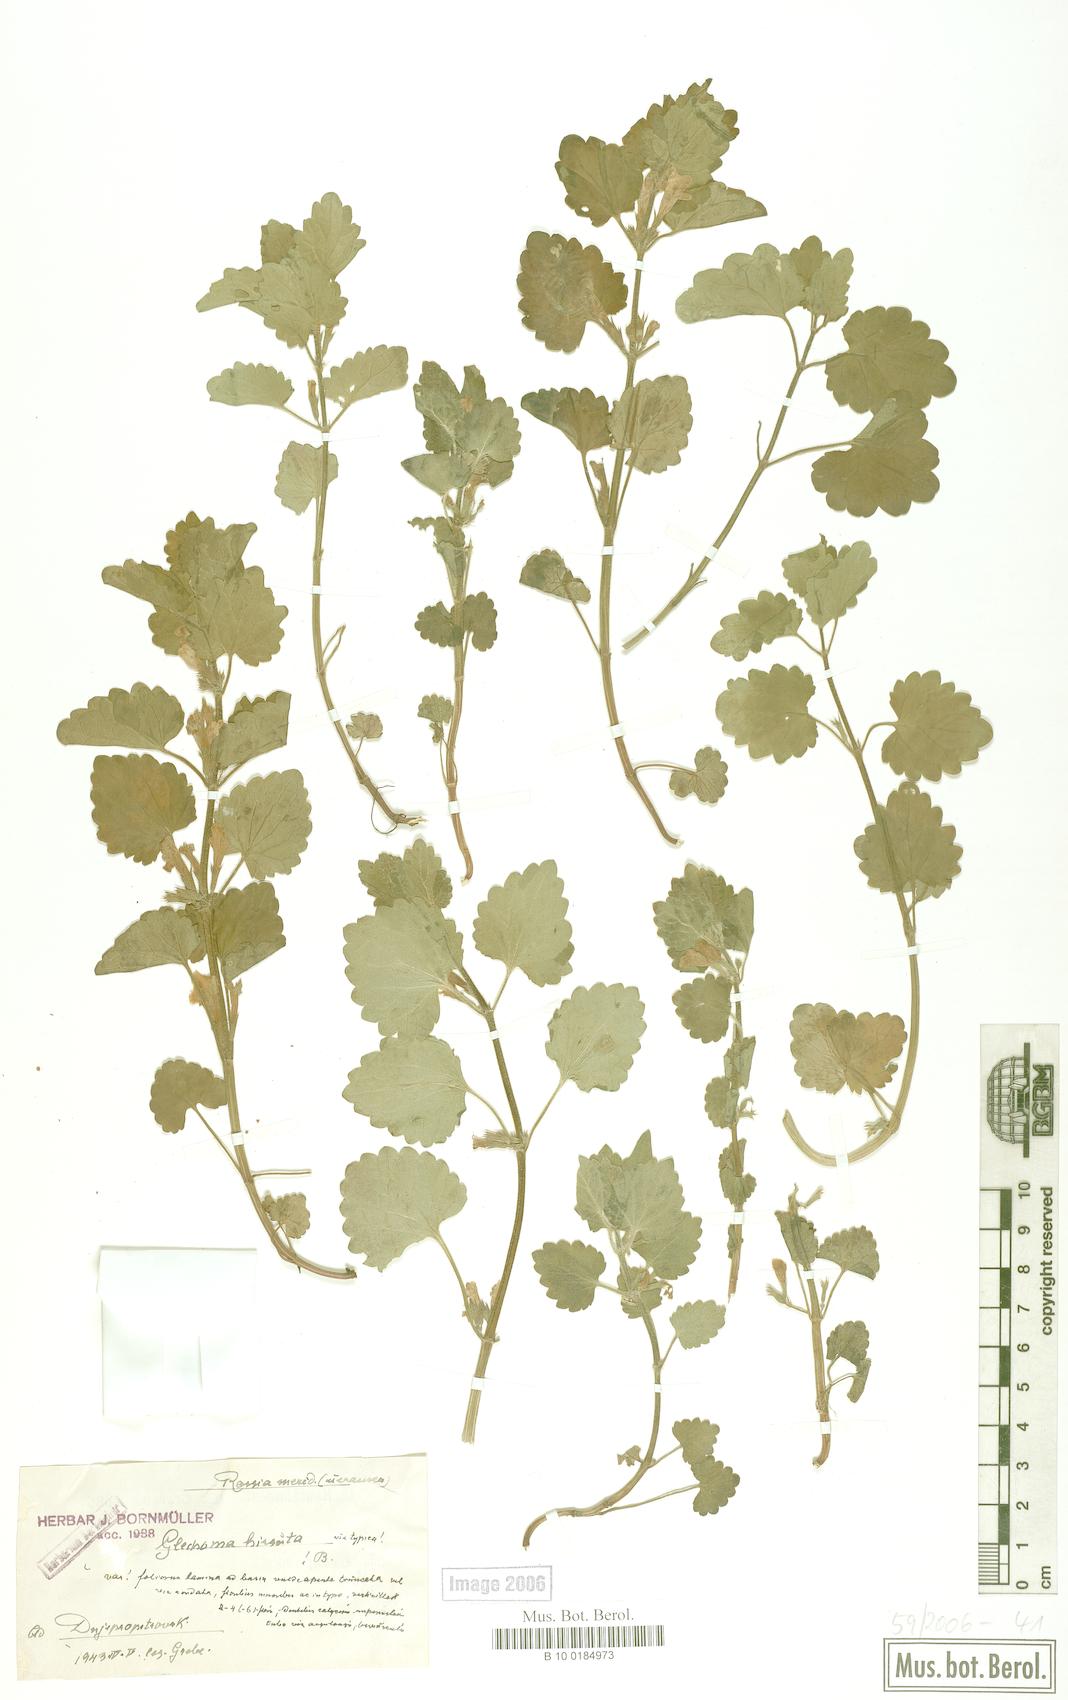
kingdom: Plantae
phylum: Tracheophyta
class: Magnoliopsida
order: Lamiales
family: Lamiaceae
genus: Glechoma
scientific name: Glechoma hirsuta
